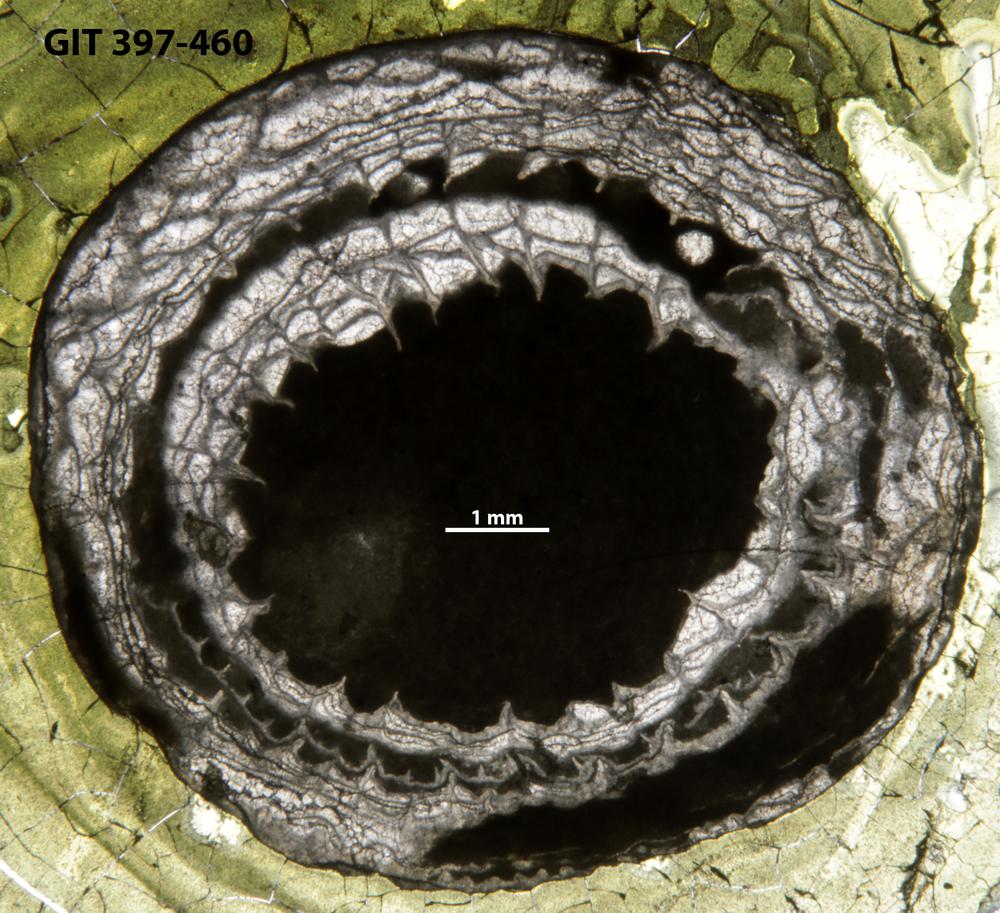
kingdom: Animalia
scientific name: Animalia
